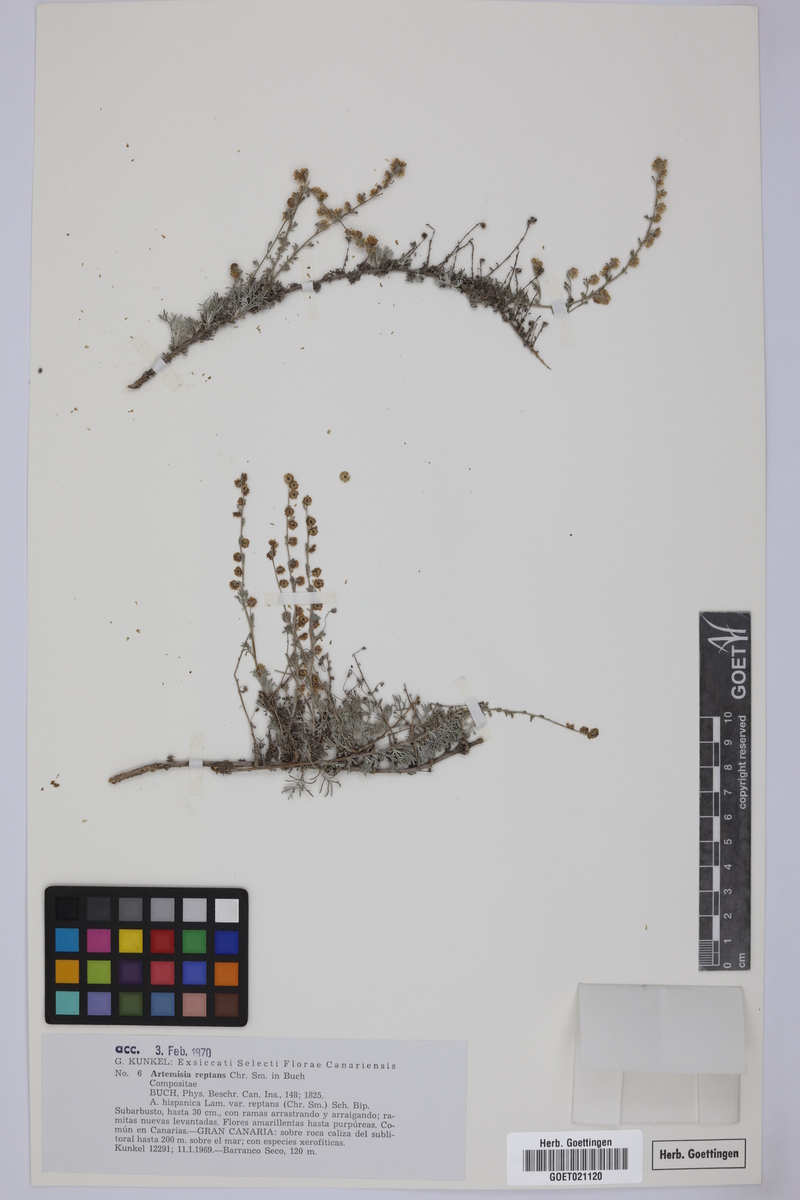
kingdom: Plantae
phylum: Tracheophyta
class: Magnoliopsida
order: Asterales
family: Asteraceae
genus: Artemisia
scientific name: Artemisia reptans
